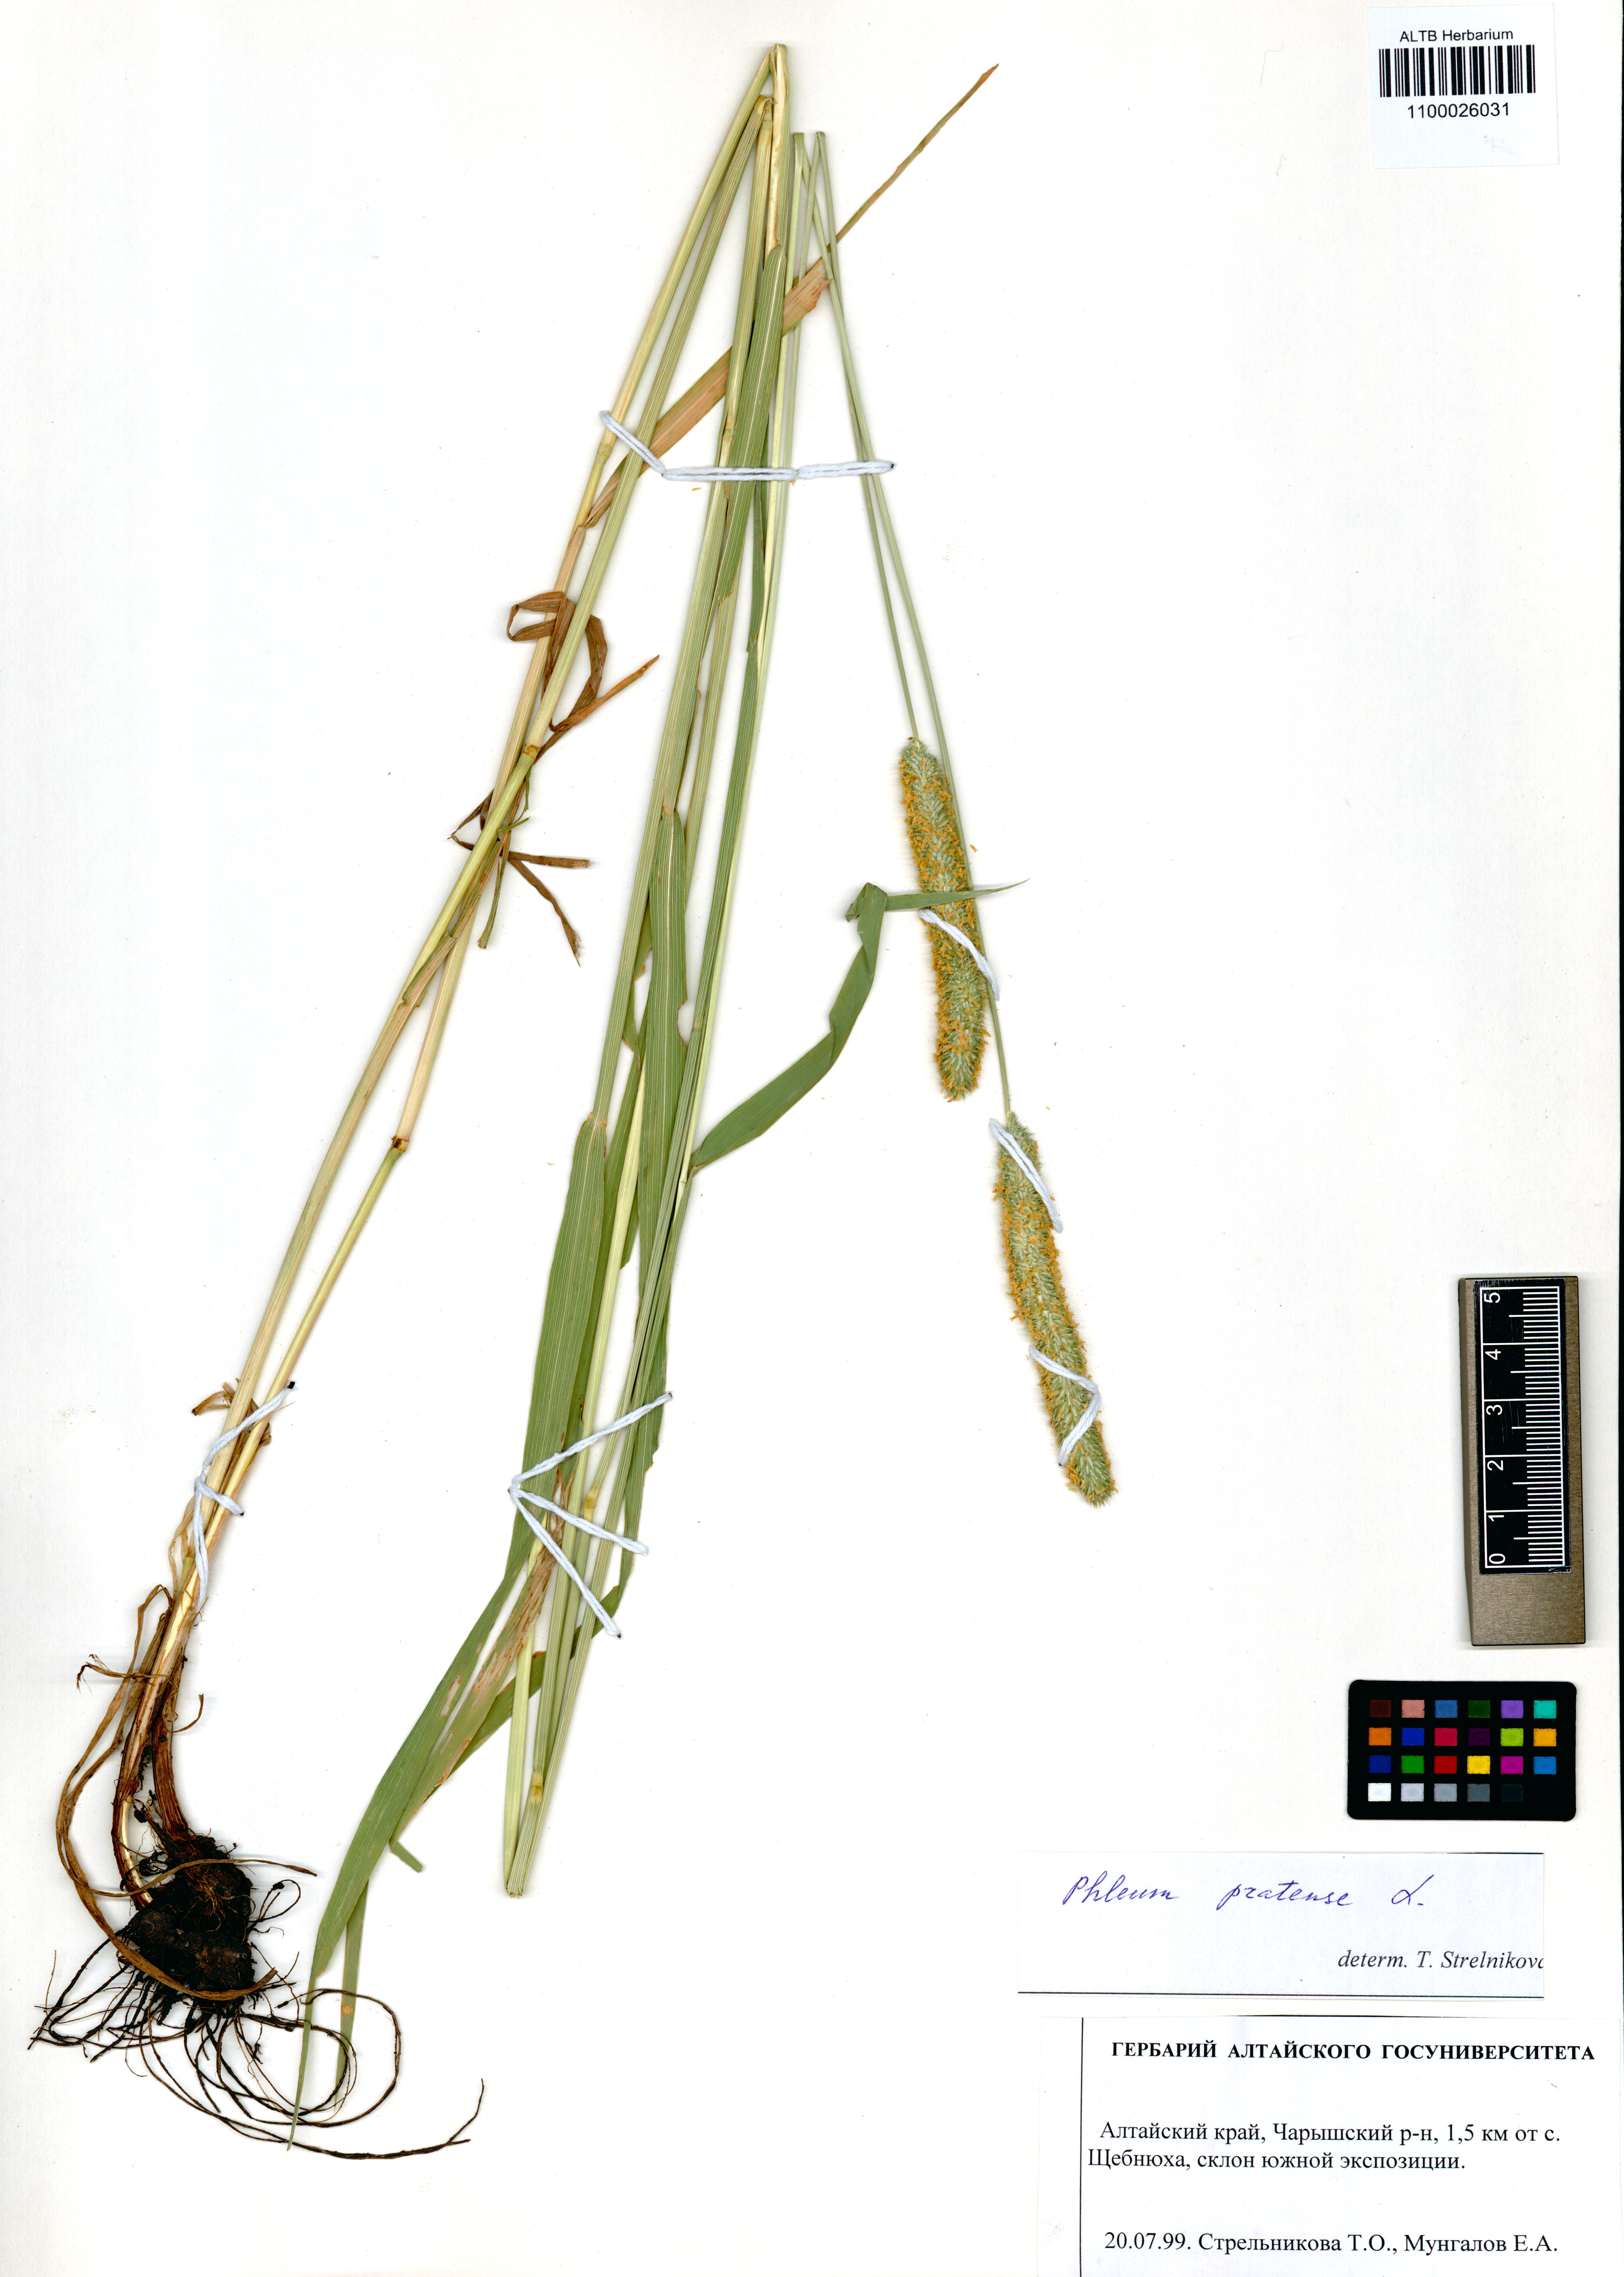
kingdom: Plantae
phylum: Tracheophyta
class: Liliopsida
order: Poales
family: Poaceae
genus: Phleum
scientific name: Phleum pratense
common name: Timothy grass
